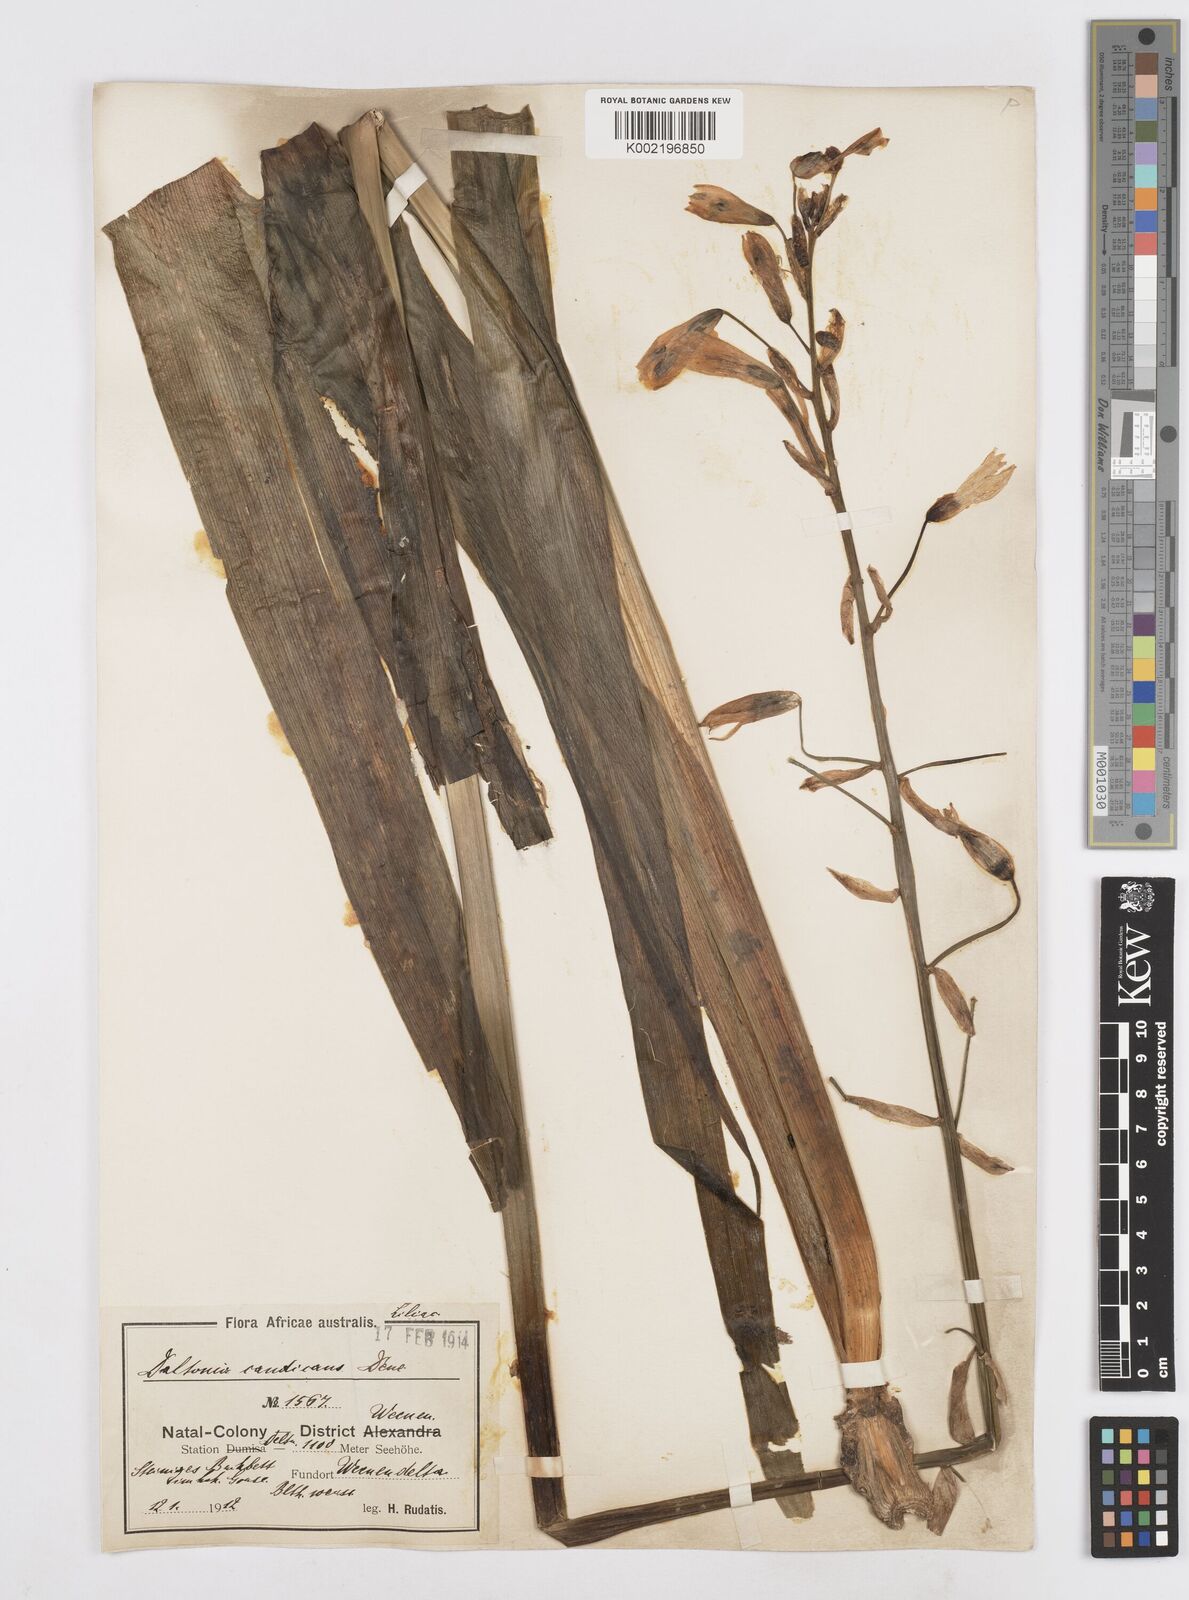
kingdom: Plantae
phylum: Tracheophyta
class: Liliopsida
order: Asparagales
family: Asparagaceae
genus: Ornithogalum
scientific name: Ornithogalum candicans
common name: Summer-hyacinth
